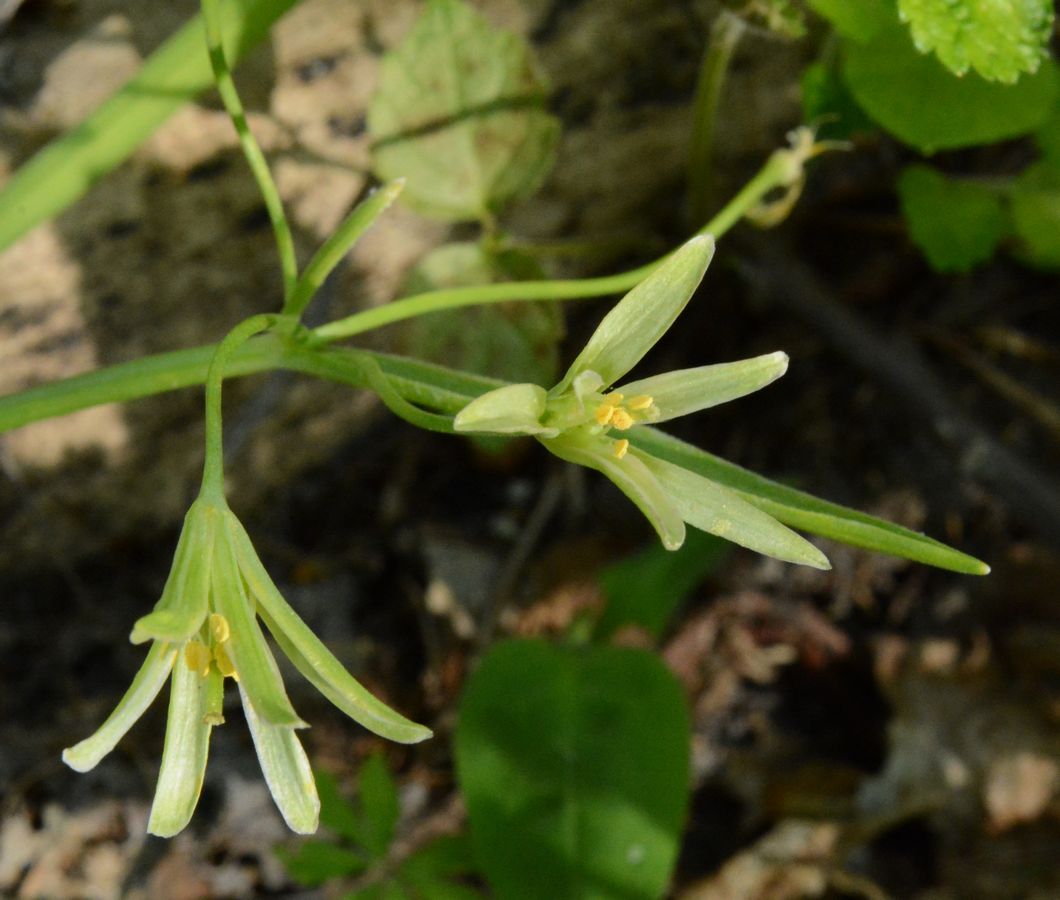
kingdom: Plantae
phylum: Tracheophyta
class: Liliopsida
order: Liliales
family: Liliaceae
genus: Gagea
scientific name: Gagea lutea
